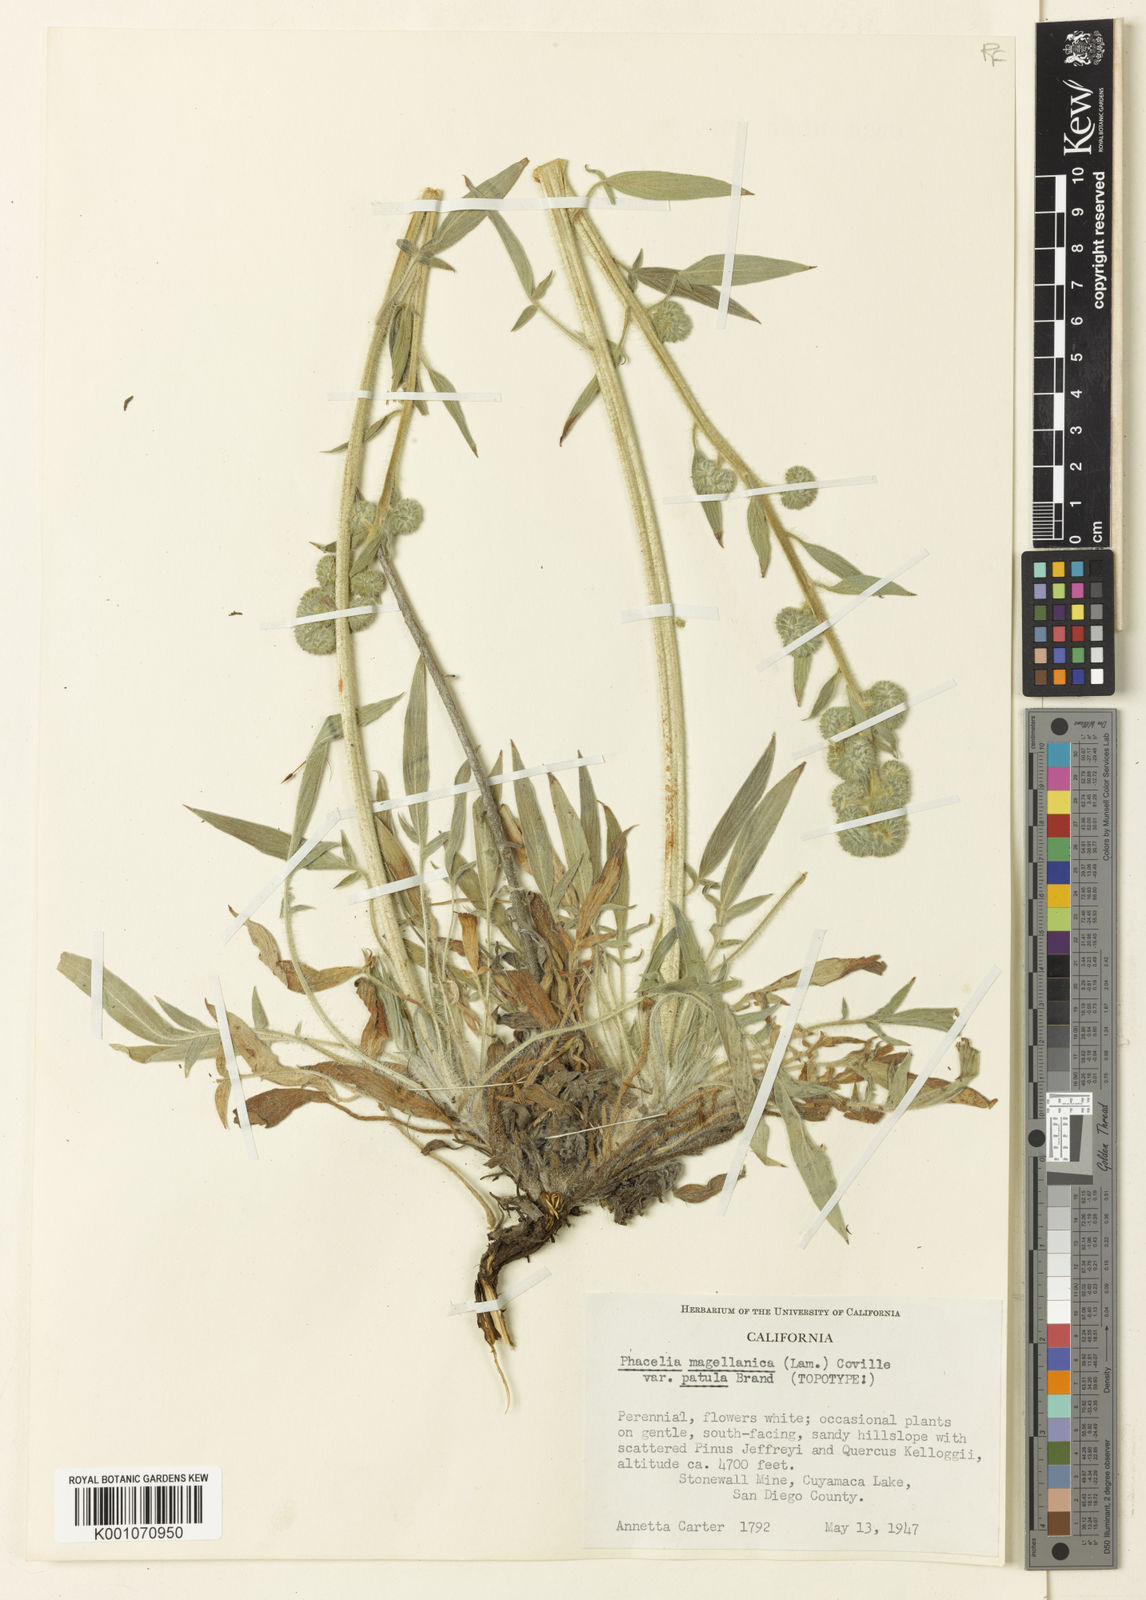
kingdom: Plantae
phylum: Tracheophyta
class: Magnoliopsida
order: Boraginales
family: Hydrophyllaceae
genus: Phacelia
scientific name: Phacelia imbricata
